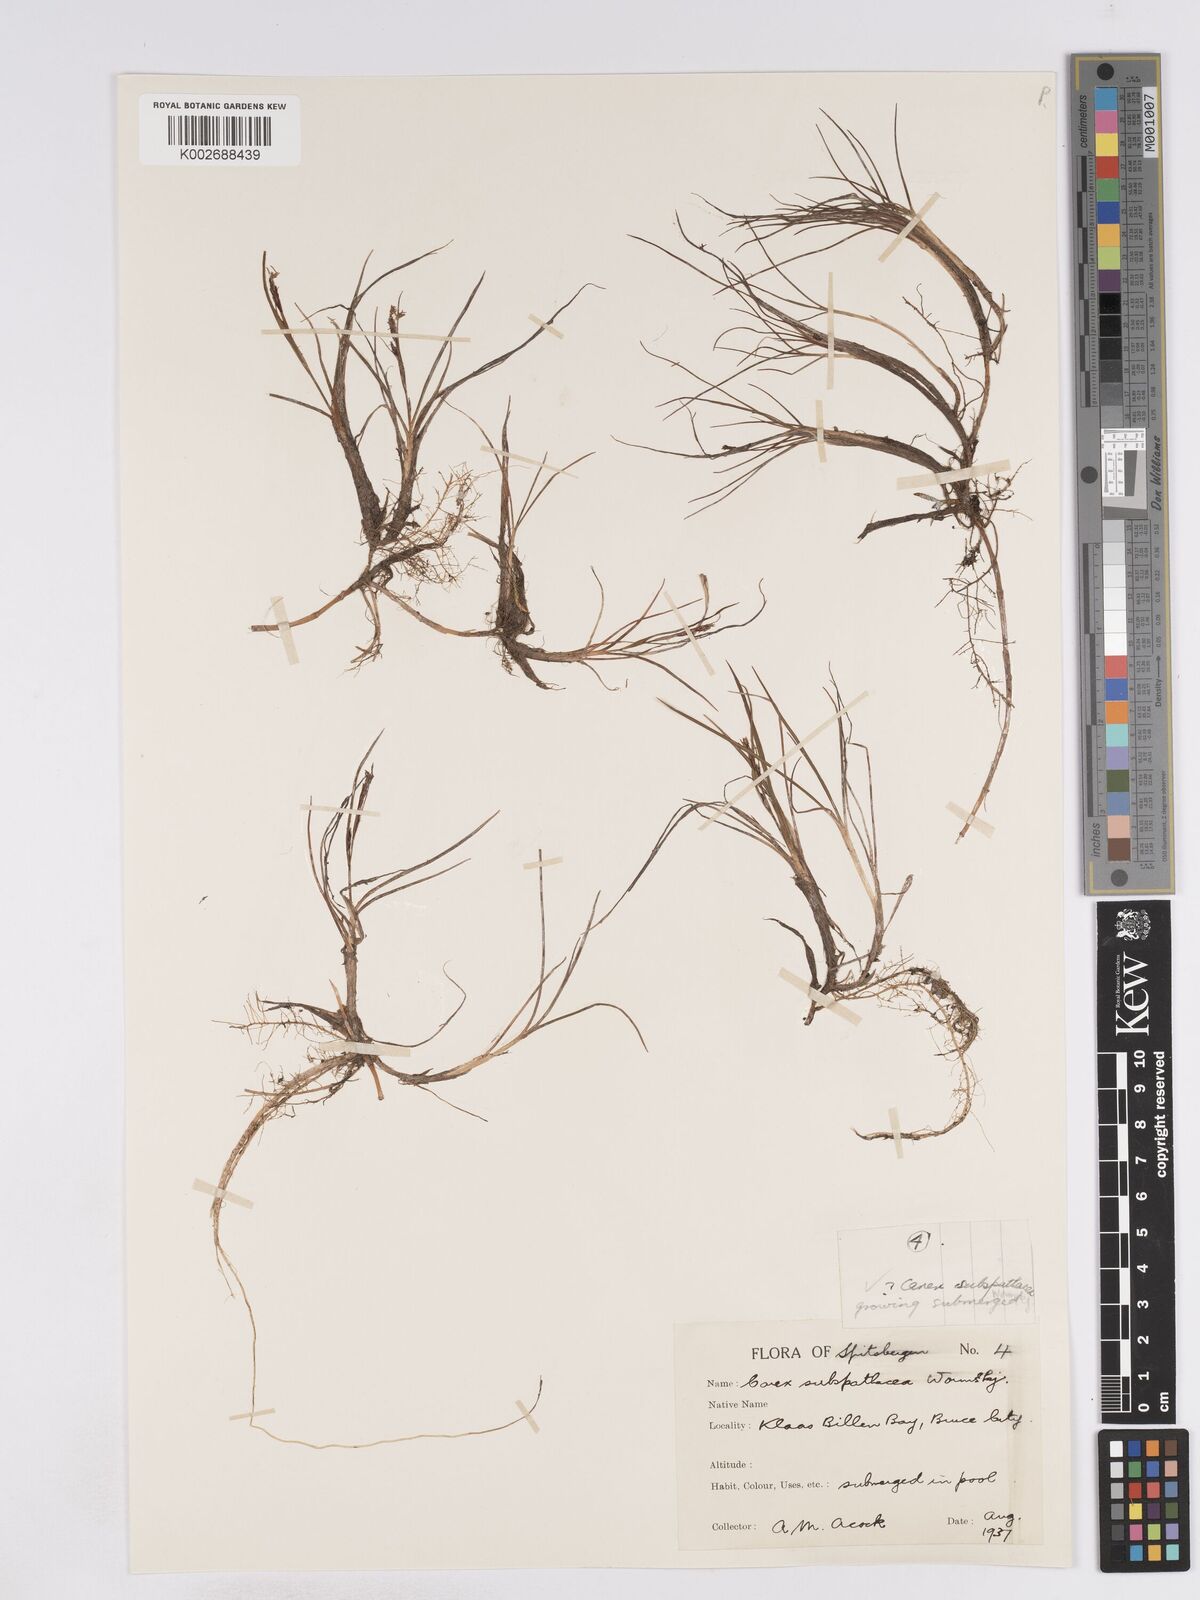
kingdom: Plantae
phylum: Tracheophyta
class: Liliopsida
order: Poales
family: Cyperaceae
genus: Carex
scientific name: Carex subspathacea
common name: Hoppner's sedge
